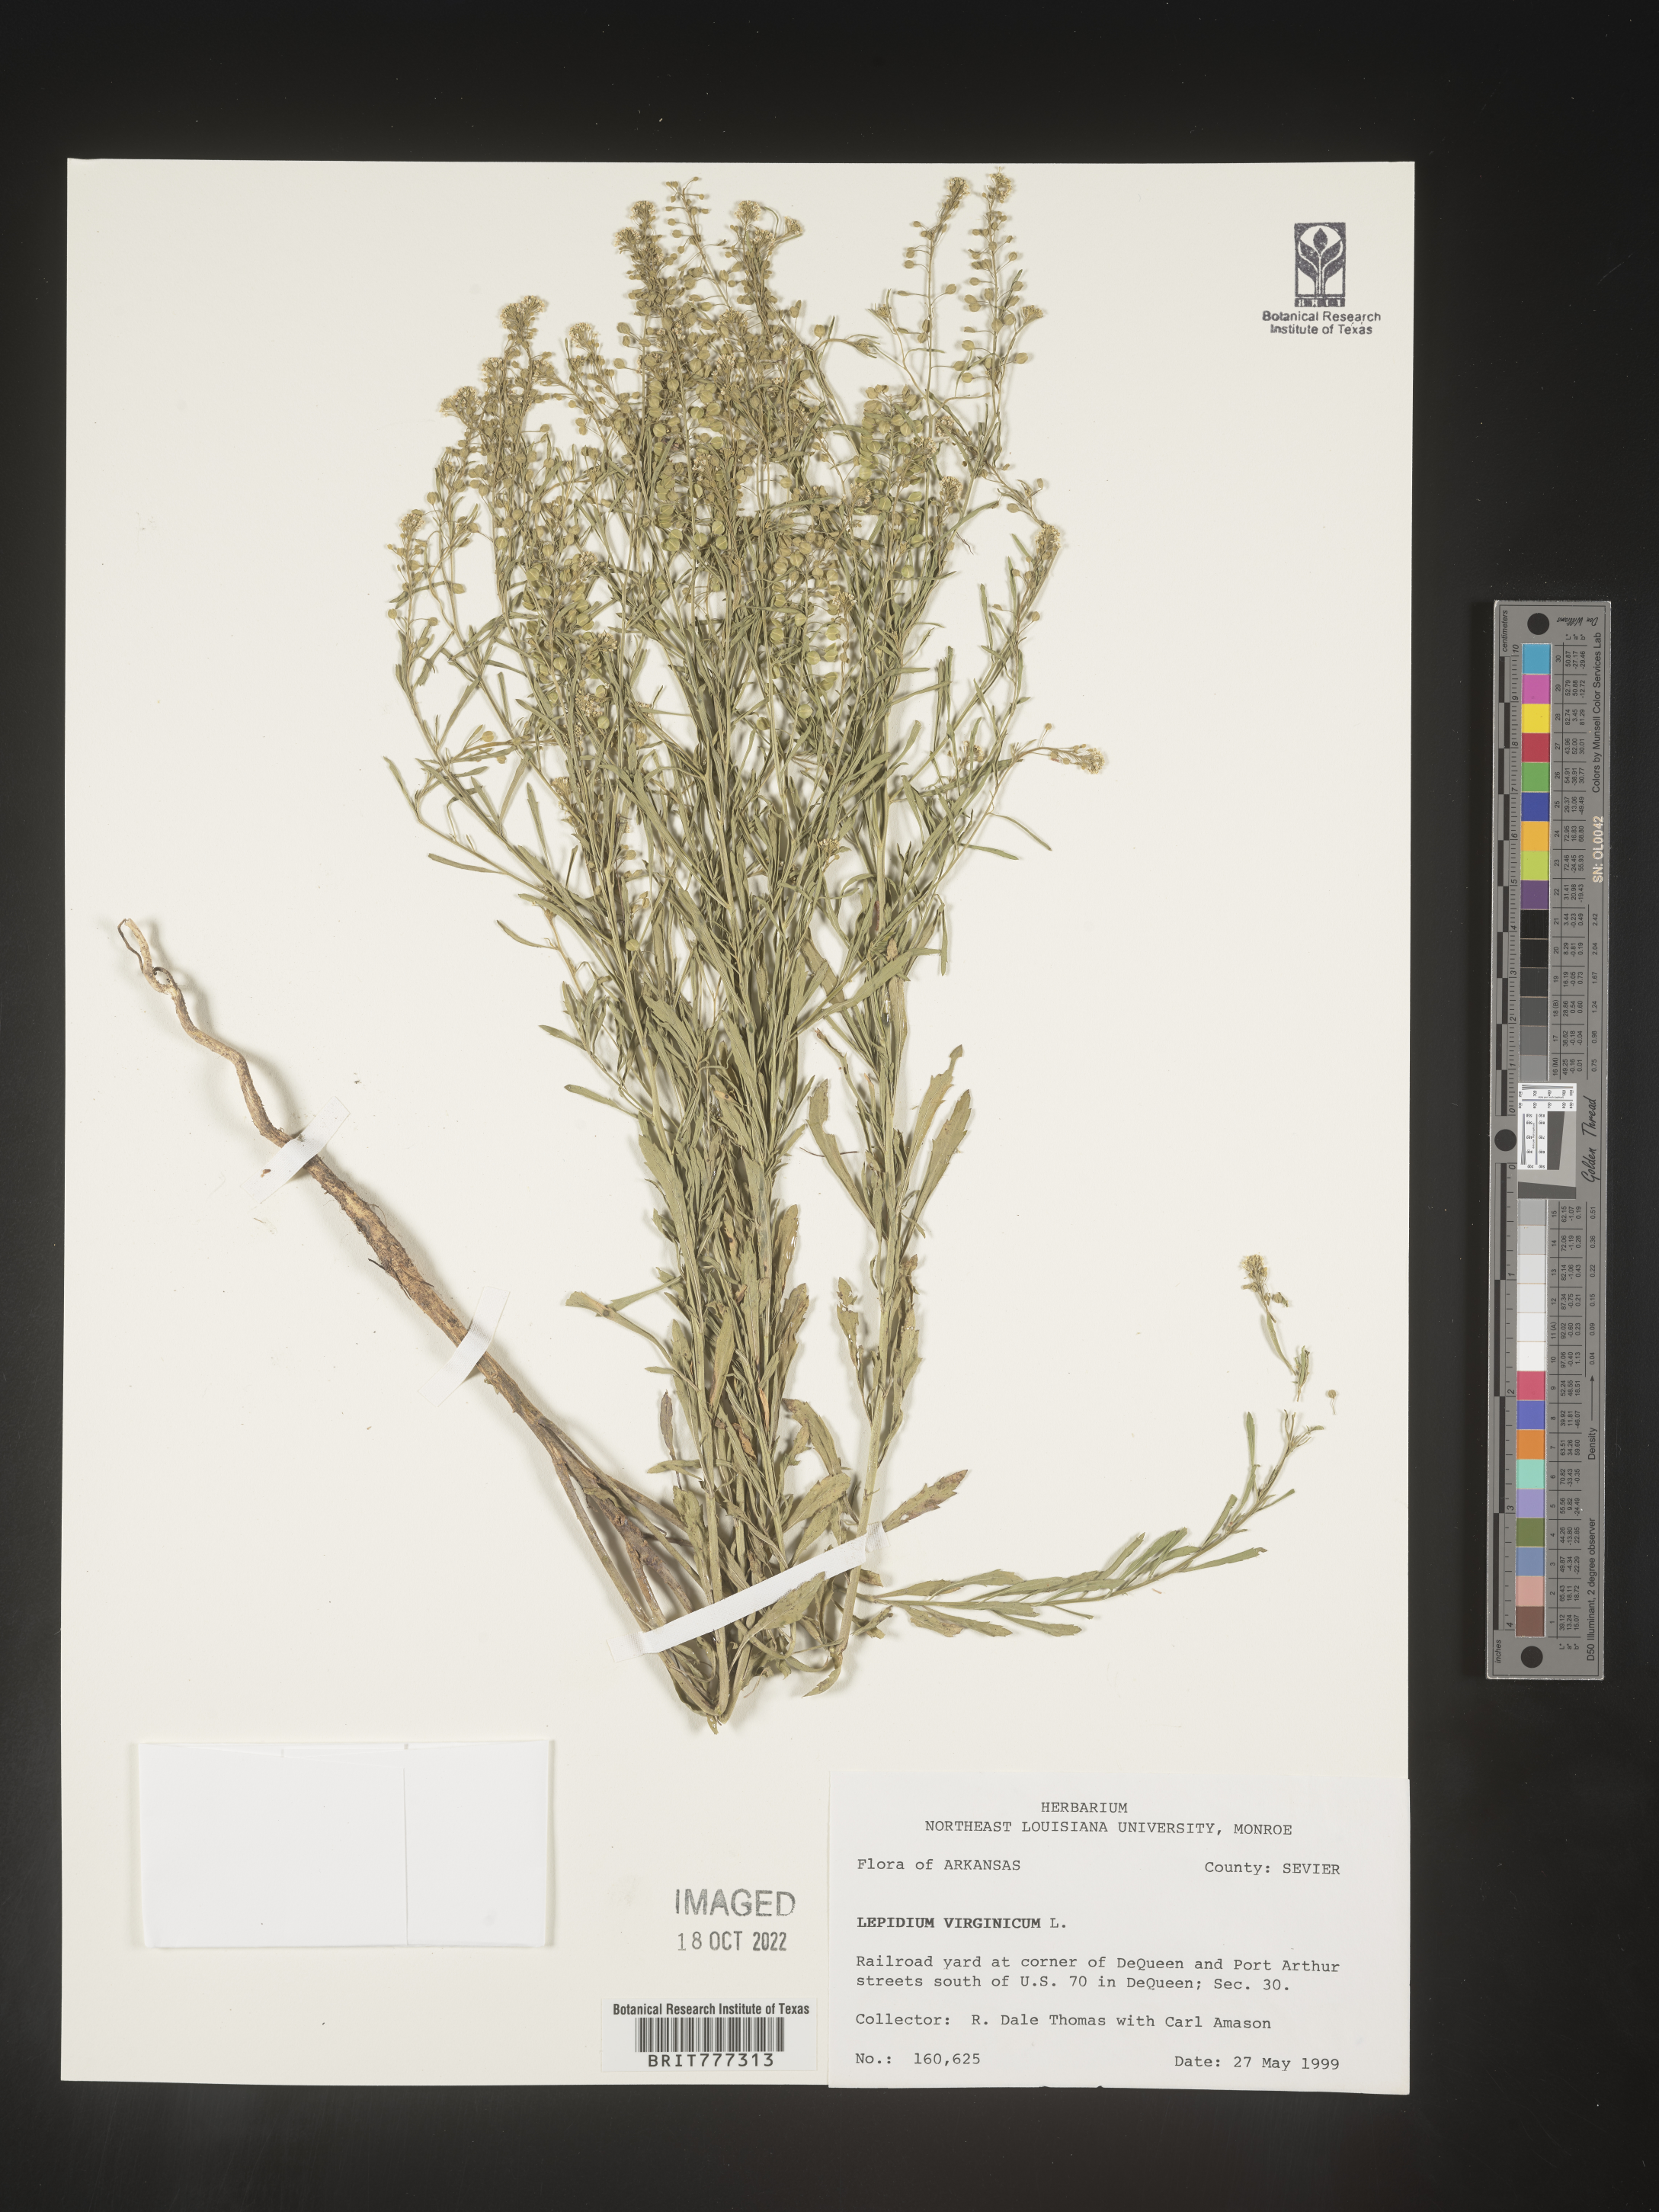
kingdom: Plantae
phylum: Tracheophyta
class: Magnoliopsida
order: Brassicales
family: Brassicaceae
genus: Lepidium
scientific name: Lepidium virginicum
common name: Least pepperwort
